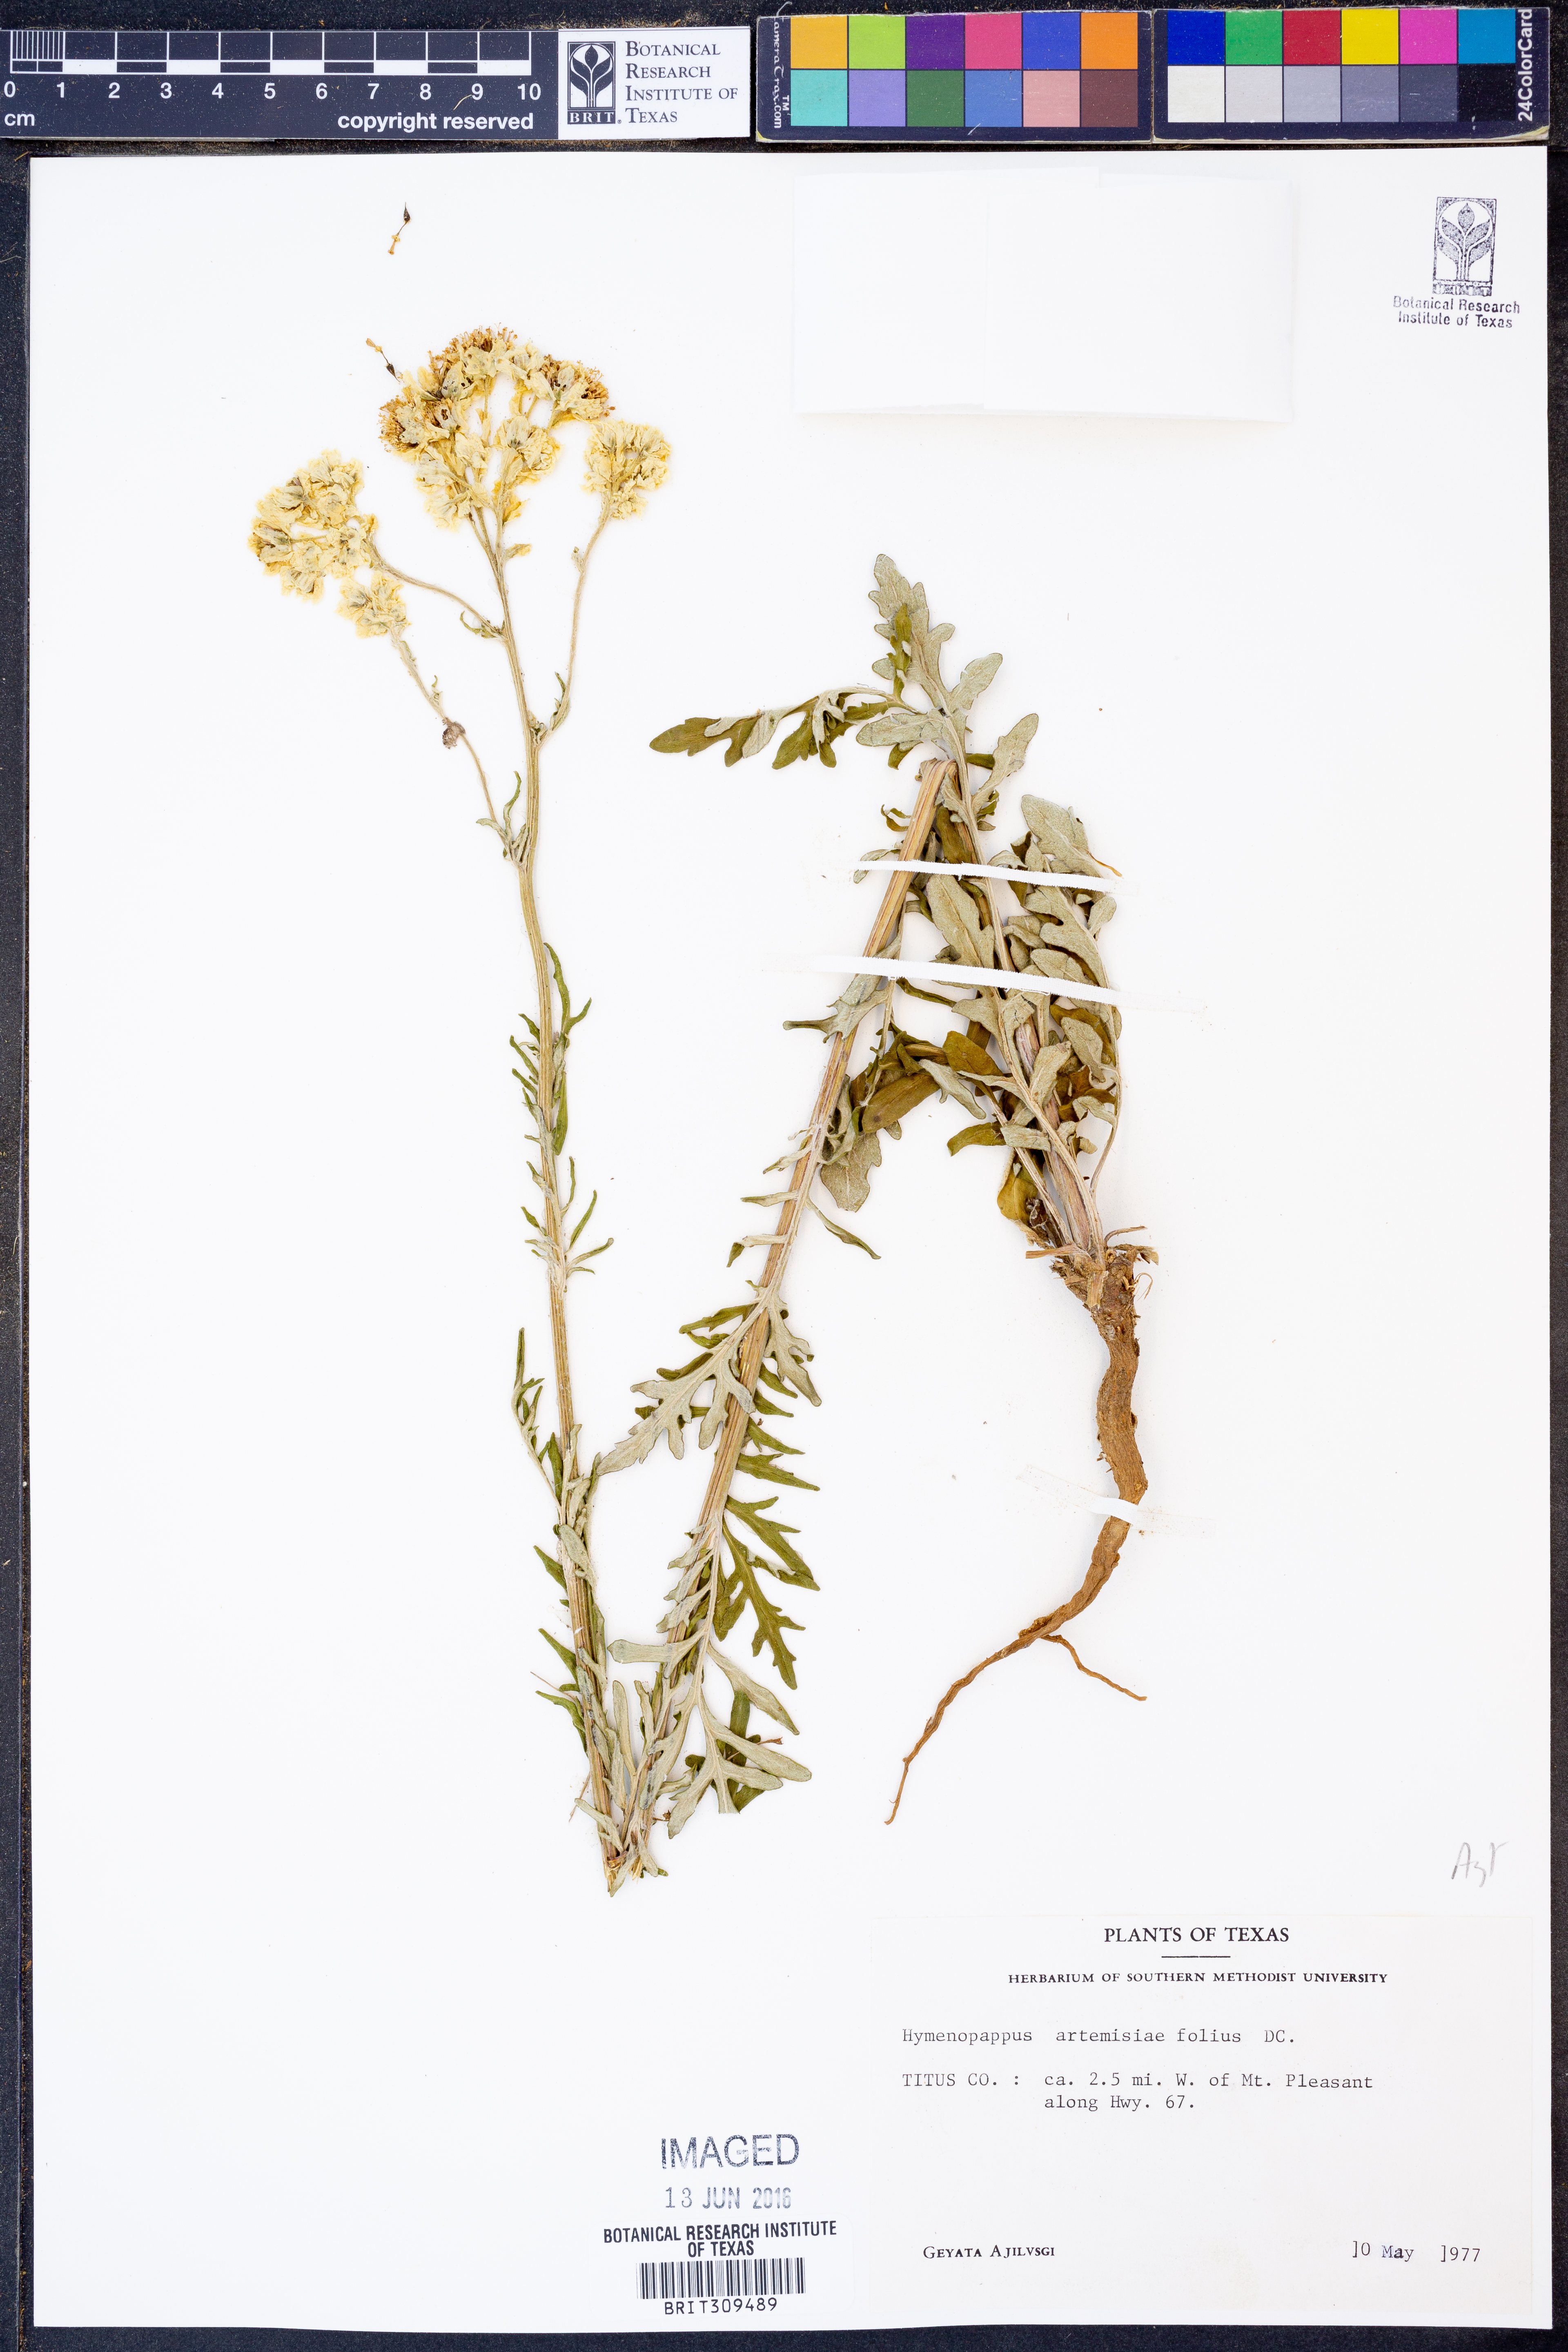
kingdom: Plantae
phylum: Tracheophyta
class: Magnoliopsida
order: Asterales
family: Asteraceae
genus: Hymenopappus
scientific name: Hymenopappus artemisiifolius
